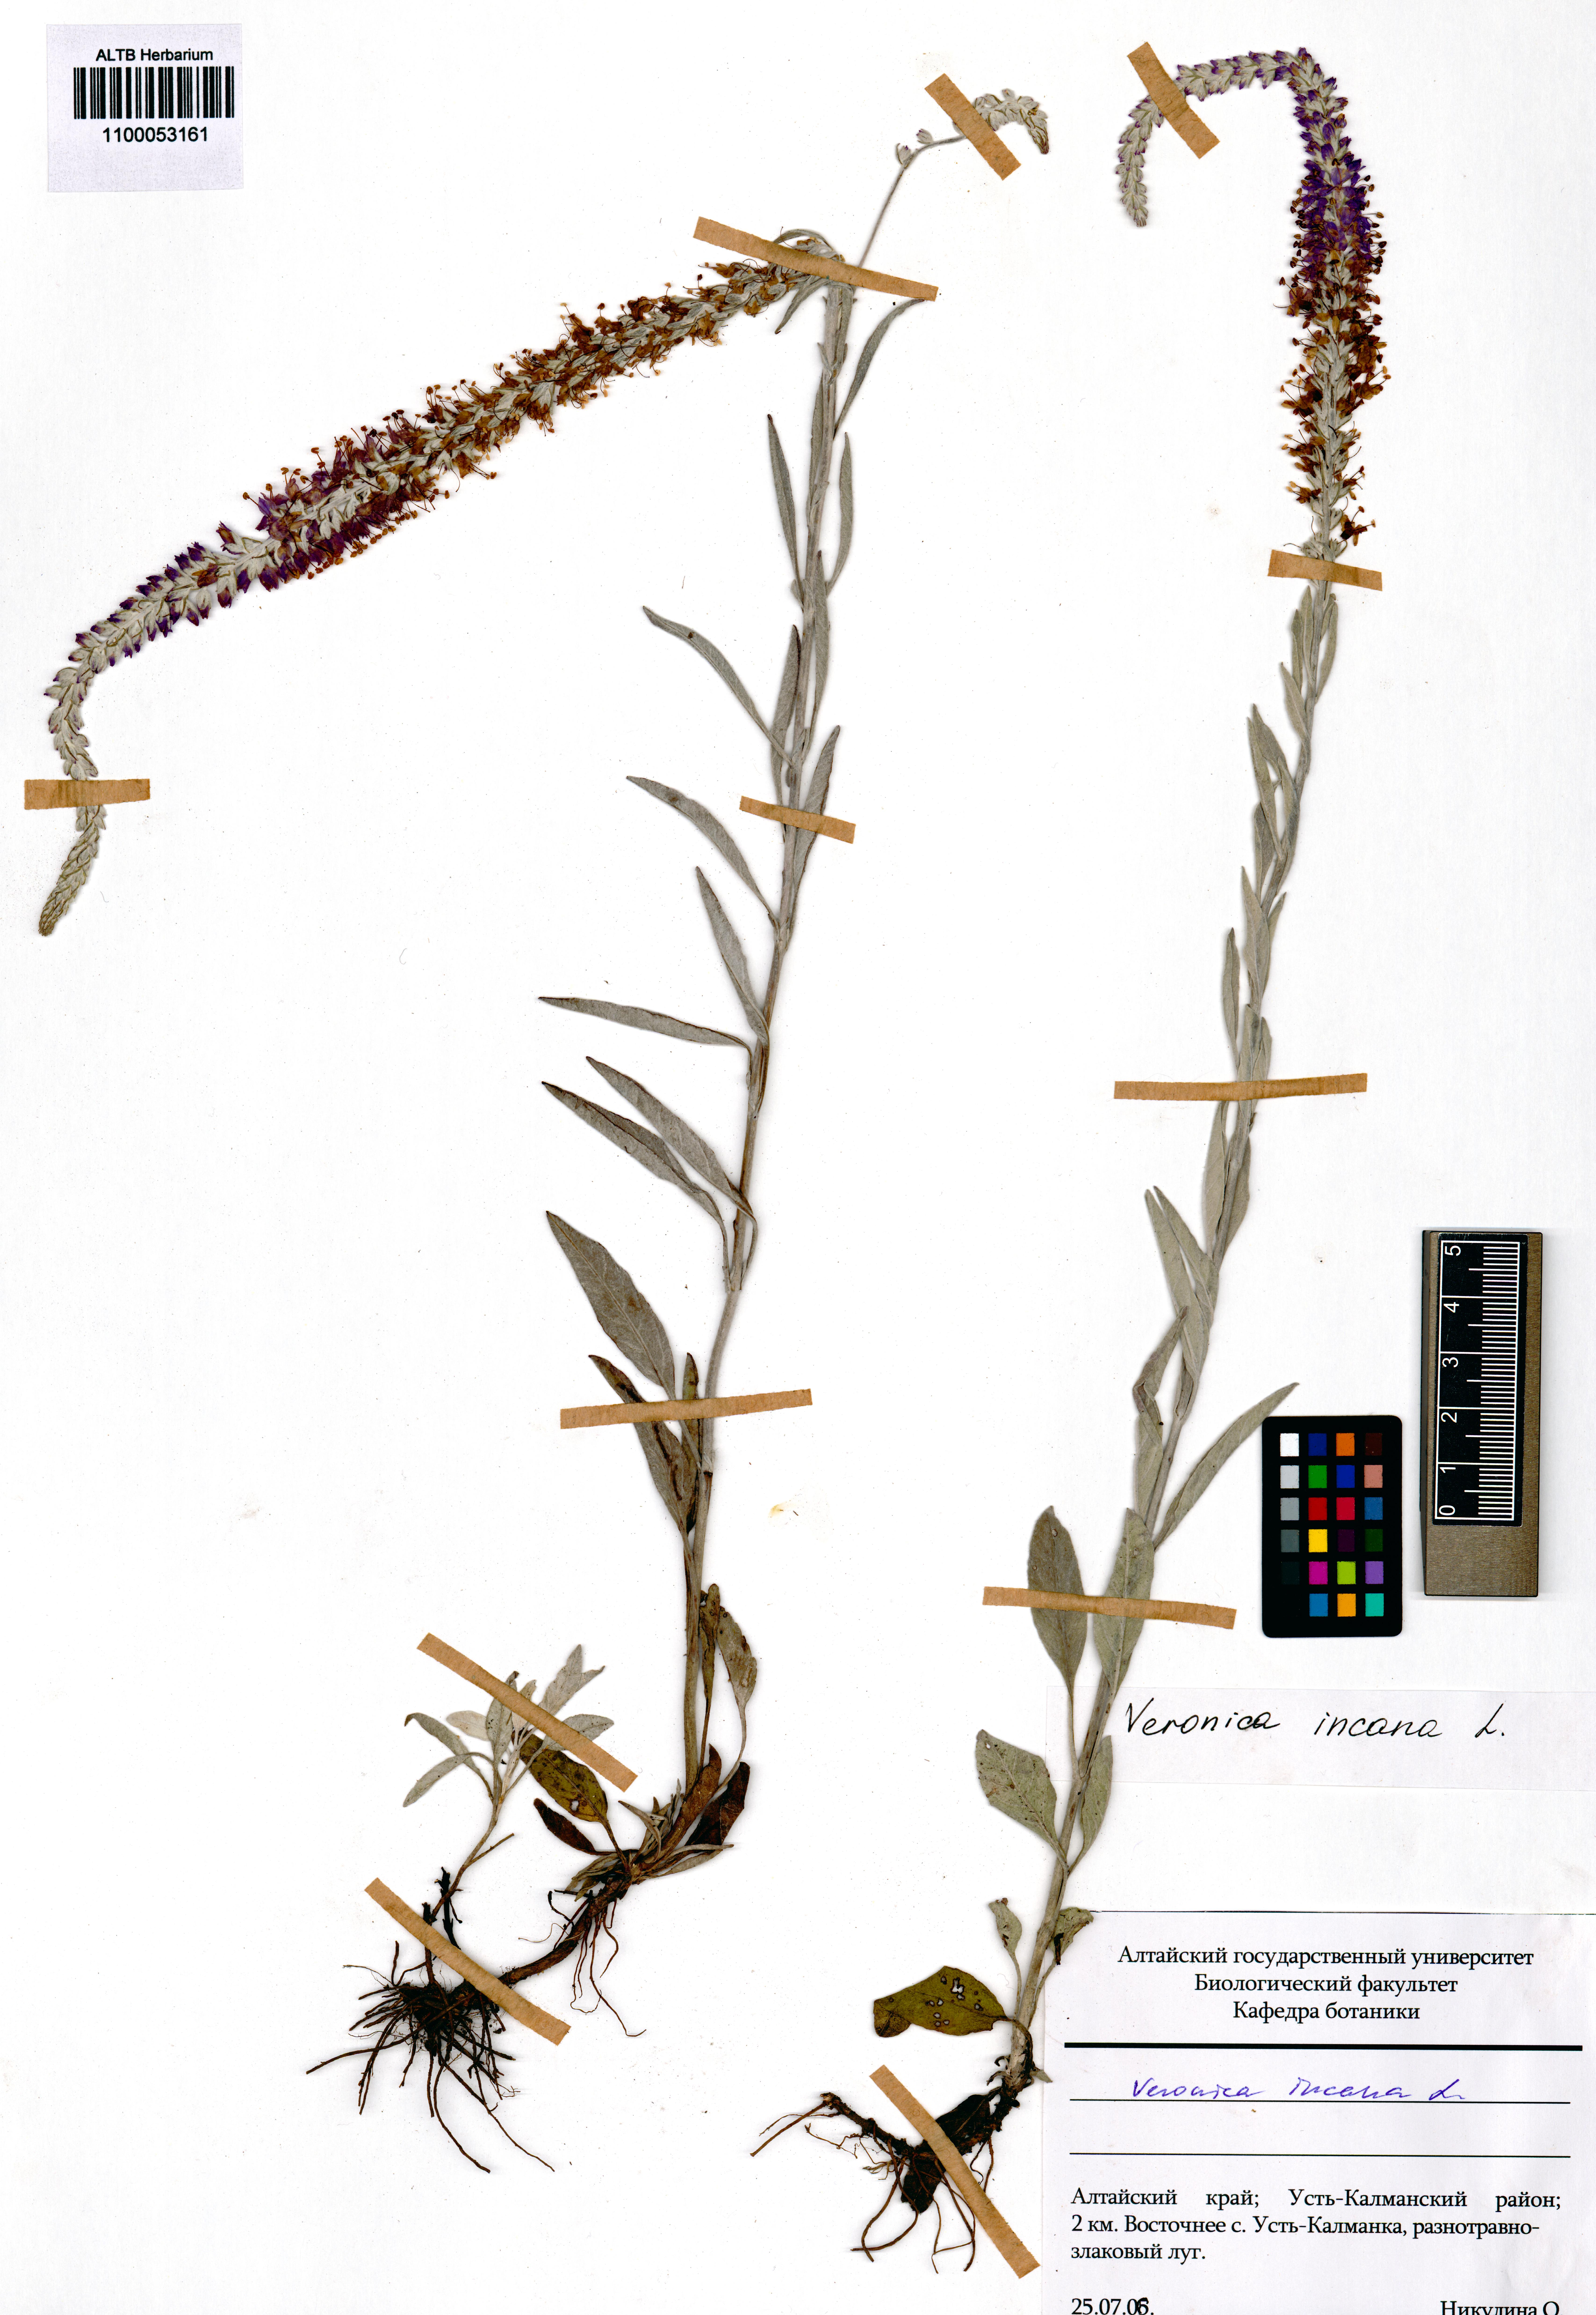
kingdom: Plantae
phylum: Tracheophyta
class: Magnoliopsida
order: Lamiales
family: Plantaginaceae
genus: Veronica
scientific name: Veronica incana
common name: Silver speedwell
